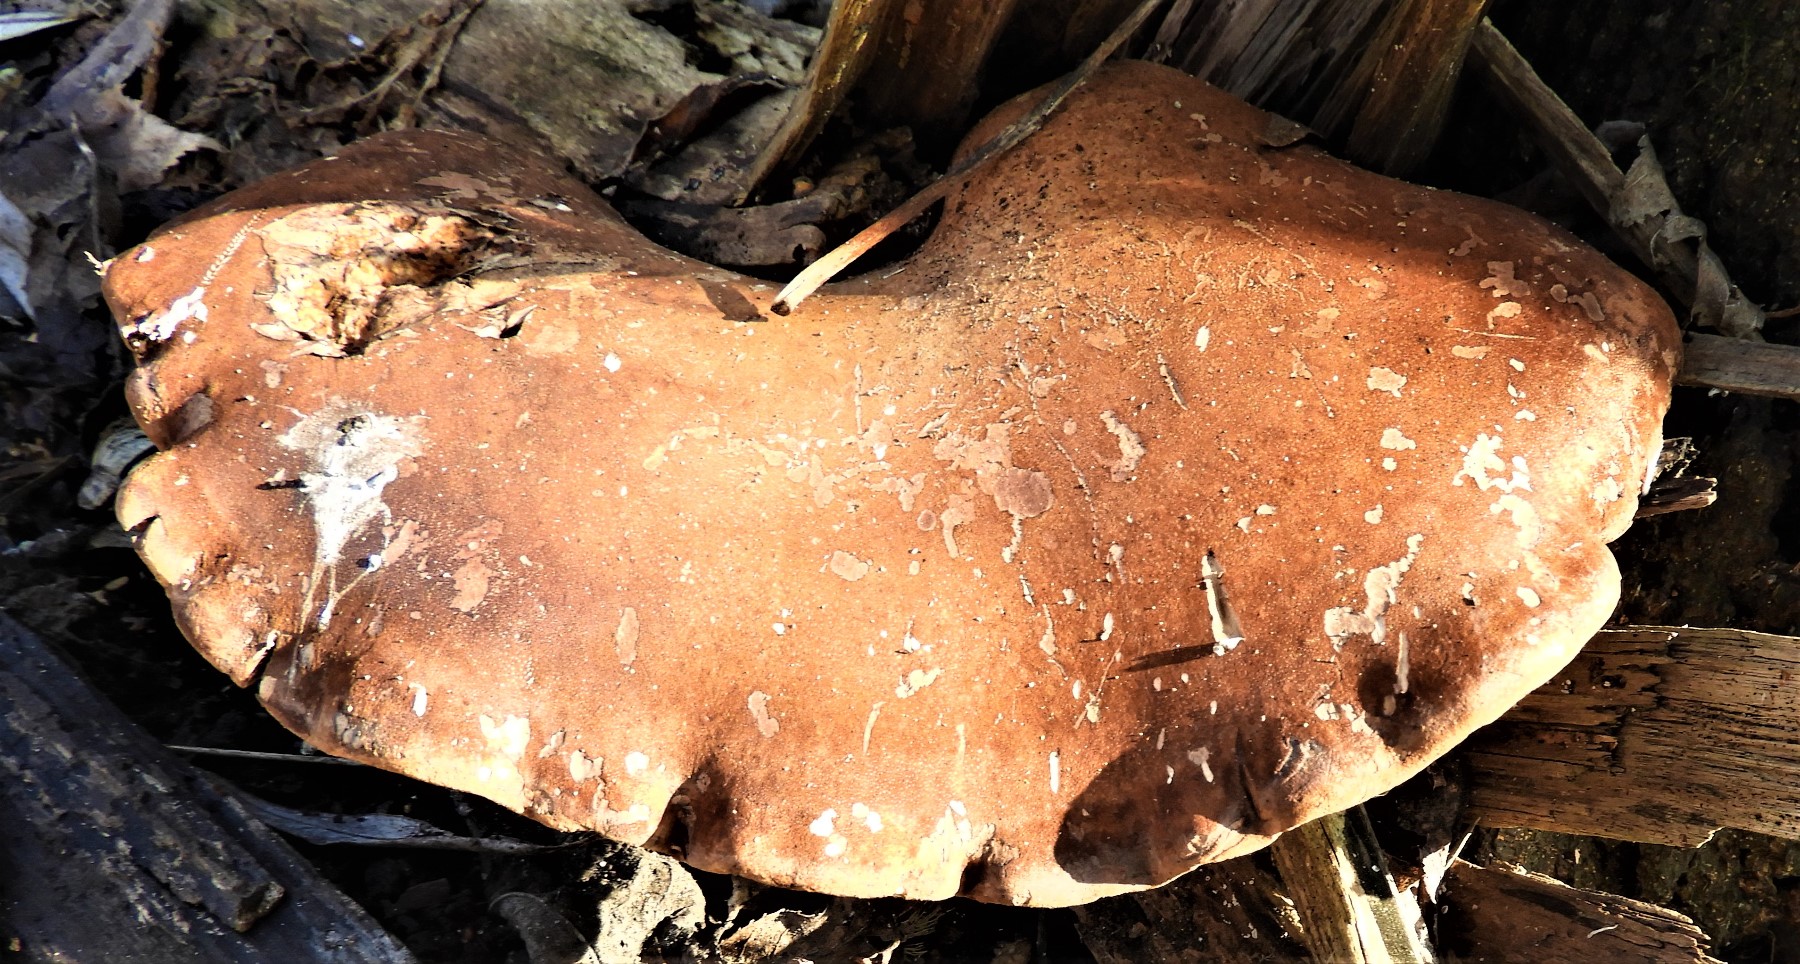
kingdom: Fungi
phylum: Basidiomycota
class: Agaricomycetes
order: Polyporales
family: Fomitopsidaceae
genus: Fomitopsis
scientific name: Fomitopsis betulina
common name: birkeporesvamp
